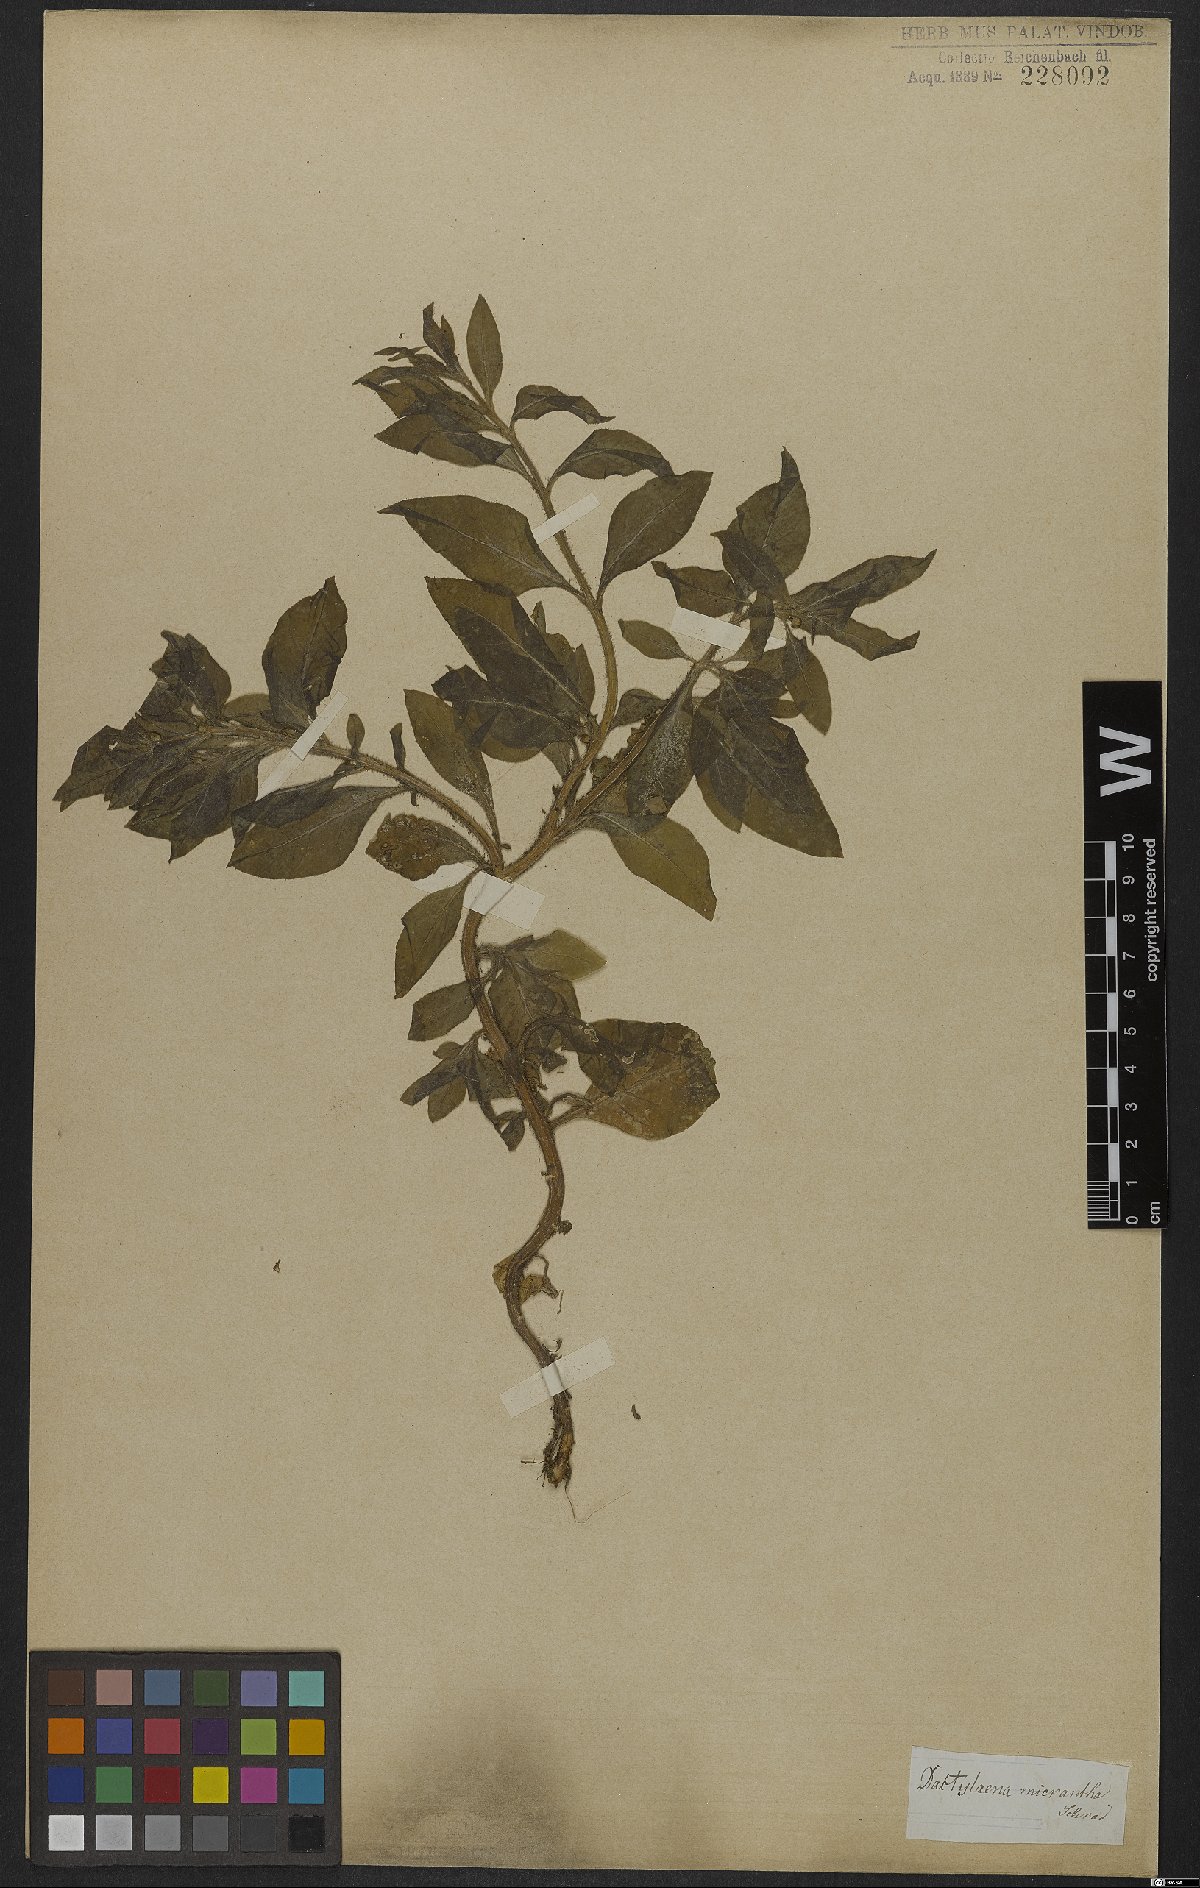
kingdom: Plantae
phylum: Tracheophyta
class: Magnoliopsida
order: Brassicales
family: Cleomaceae
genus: Dactylaena
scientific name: Dactylaena monandra
